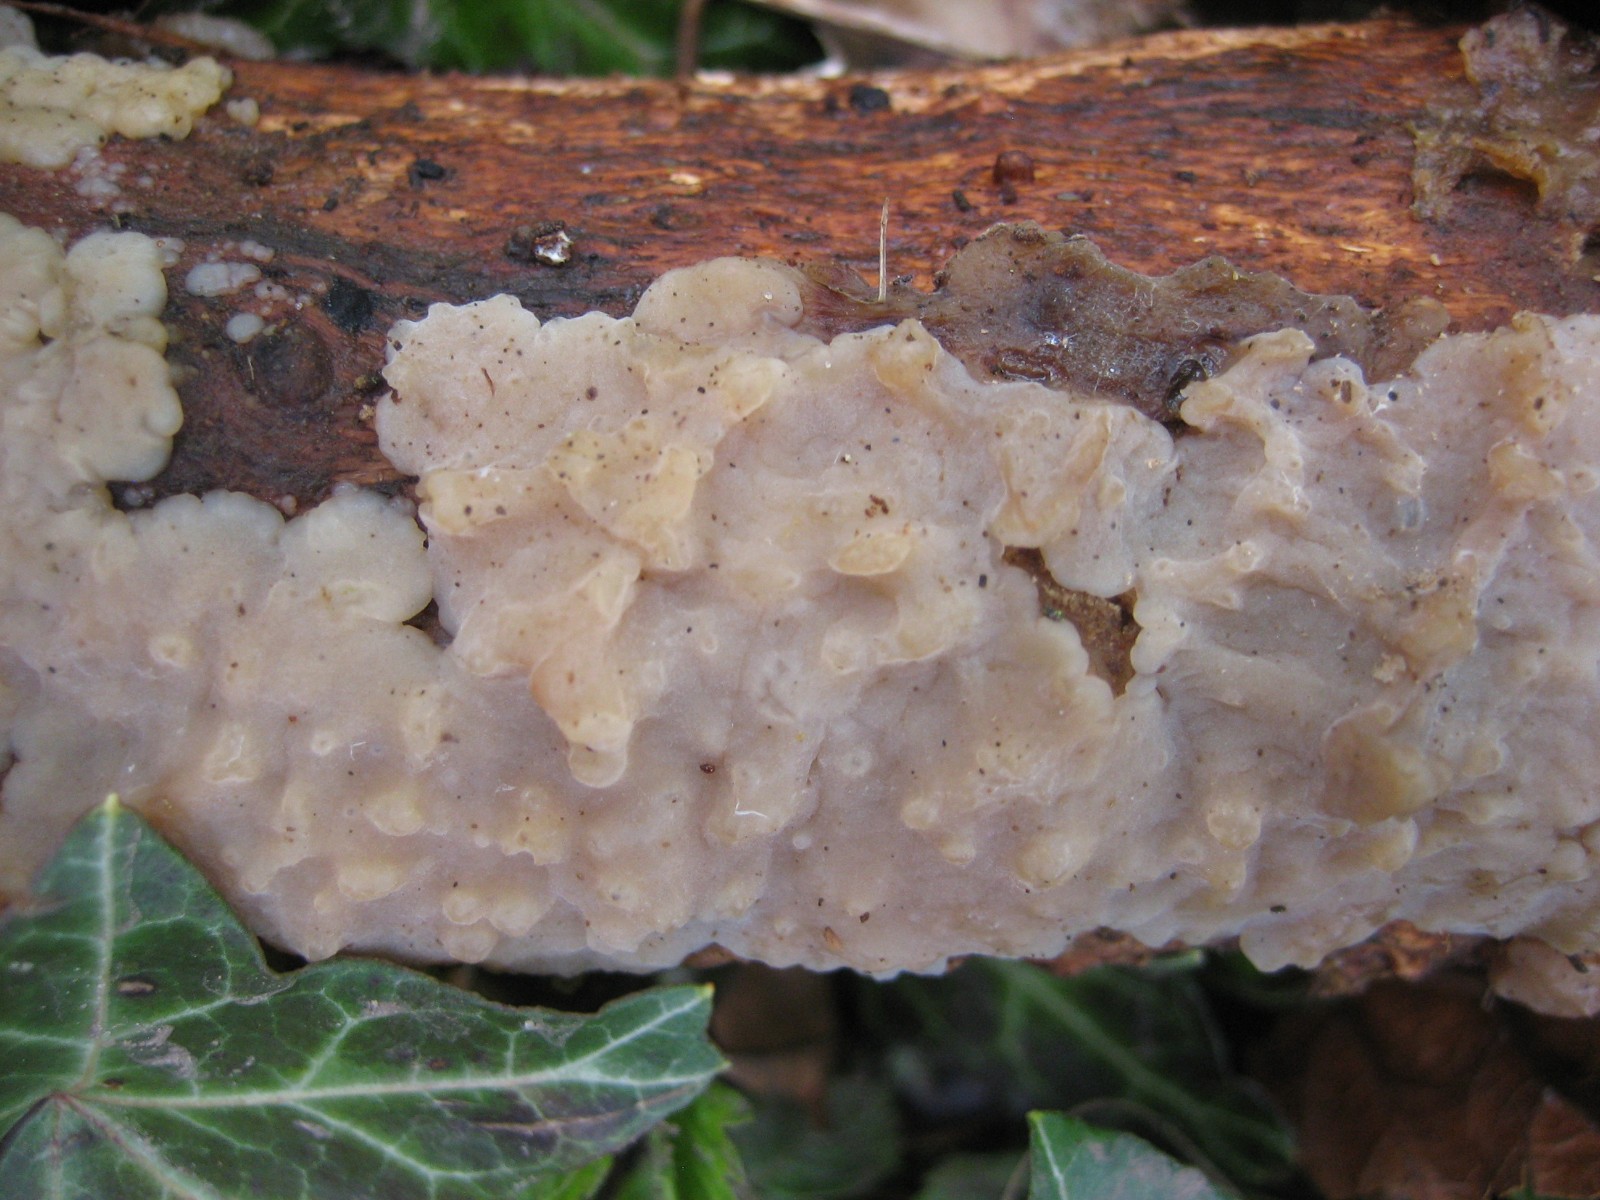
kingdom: Fungi
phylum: Basidiomycota
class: Agaricomycetes
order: Auriculariales
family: Auriculariaceae
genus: Exidia
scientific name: Exidia thuretiana
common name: hvidlig bævretop
